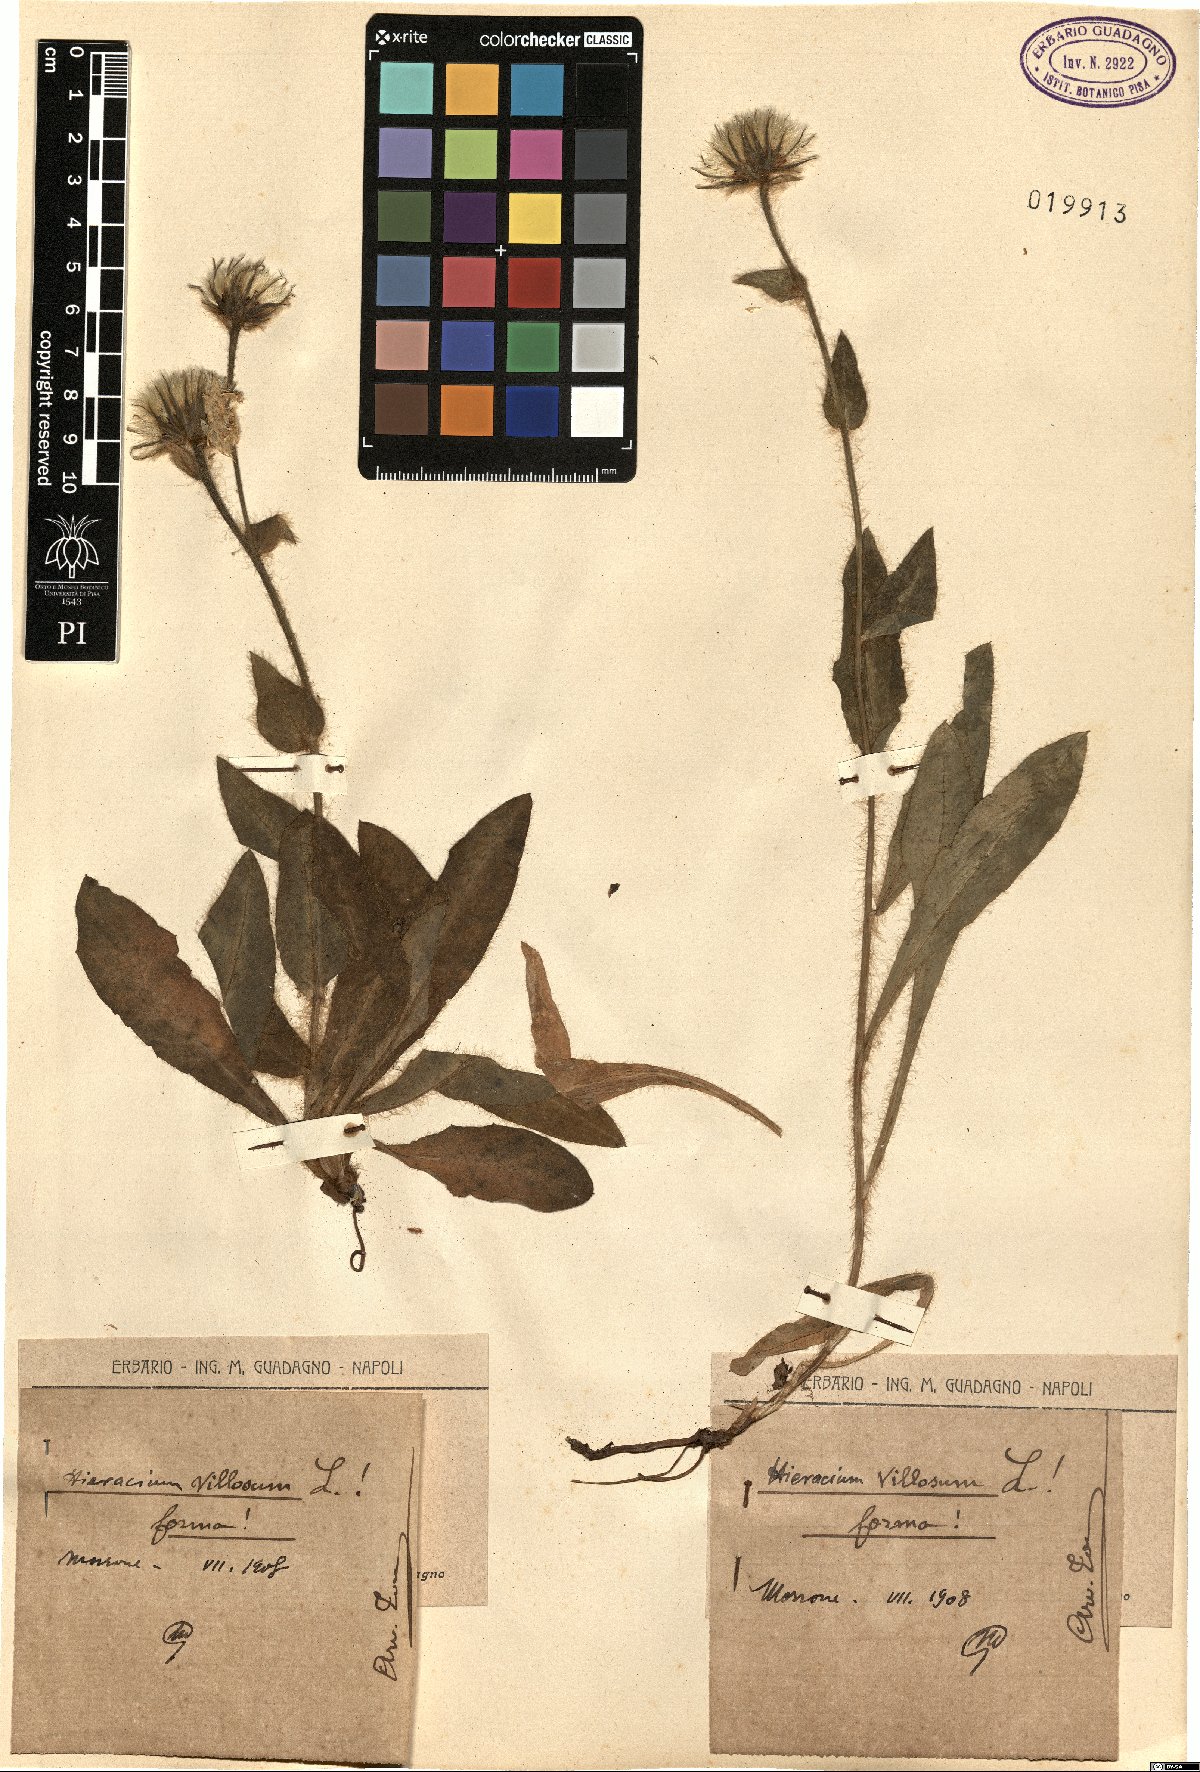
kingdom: Plantae
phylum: Tracheophyta
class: Magnoliopsida
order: Asterales
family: Asteraceae
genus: Hieracium
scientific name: Hieracium villosum
